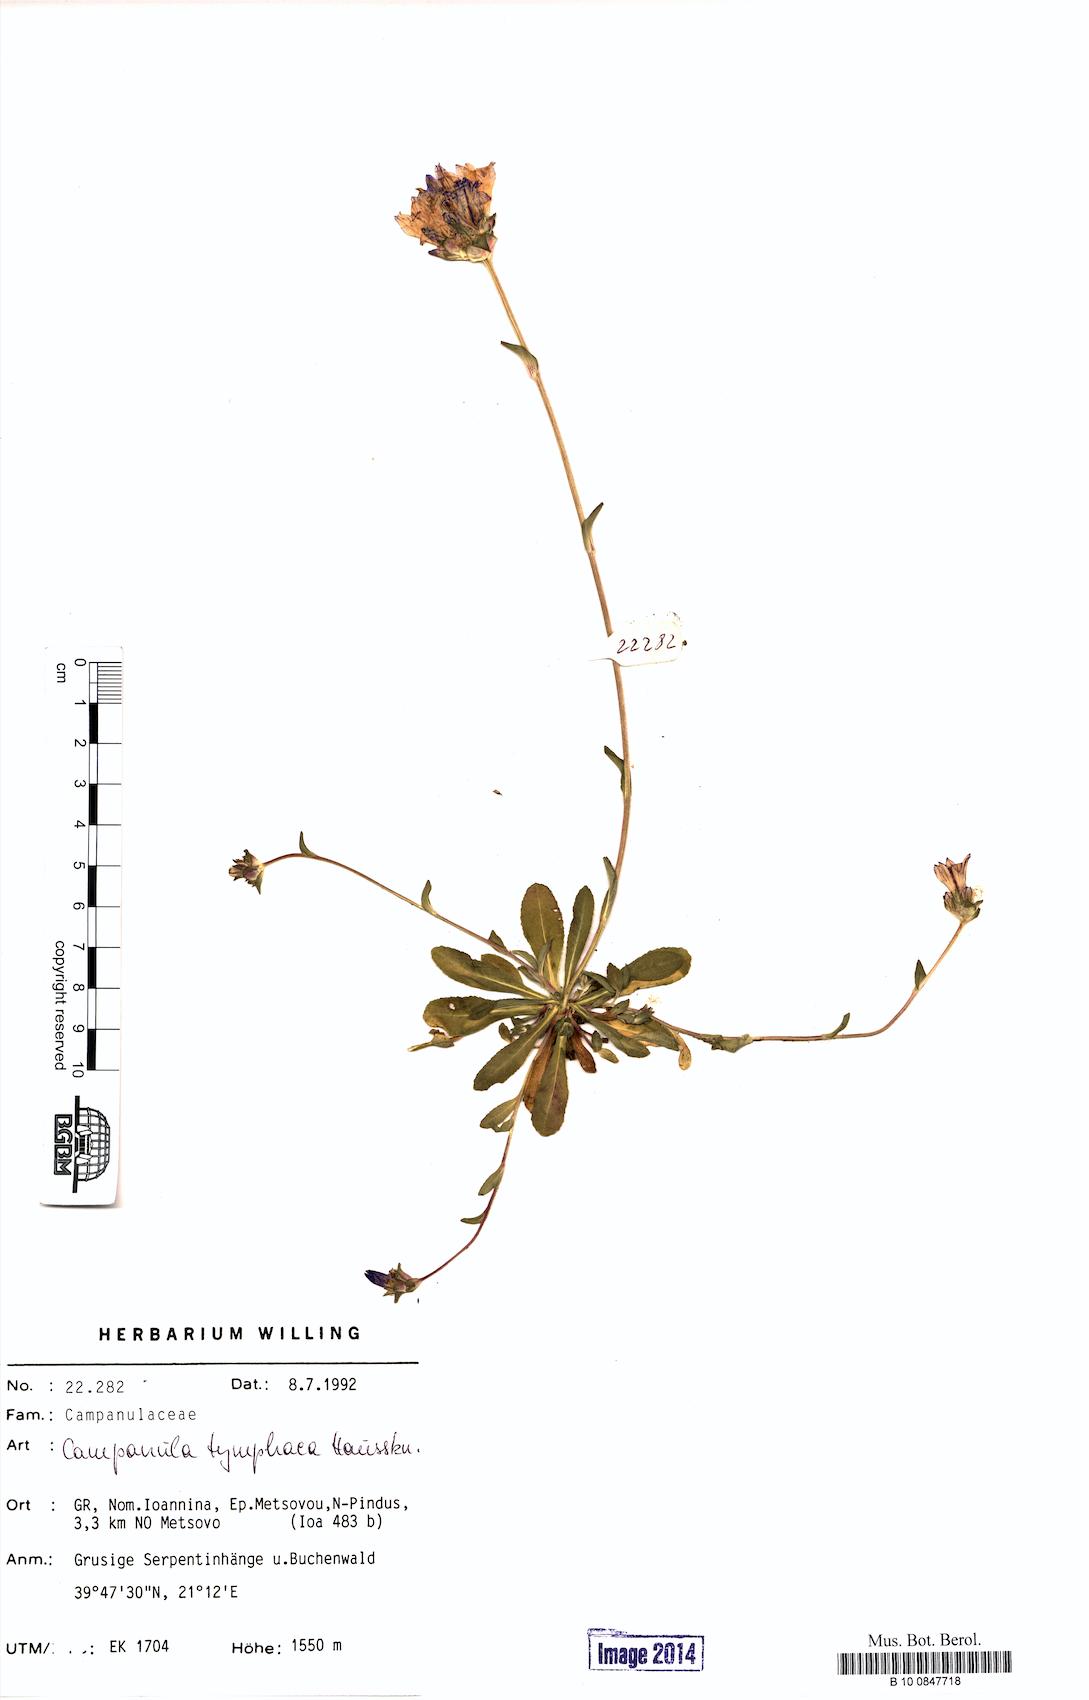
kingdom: Plantae
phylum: Tracheophyta
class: Magnoliopsida
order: Asterales
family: Campanulaceae
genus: Campanula
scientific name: Campanula tymphaea
